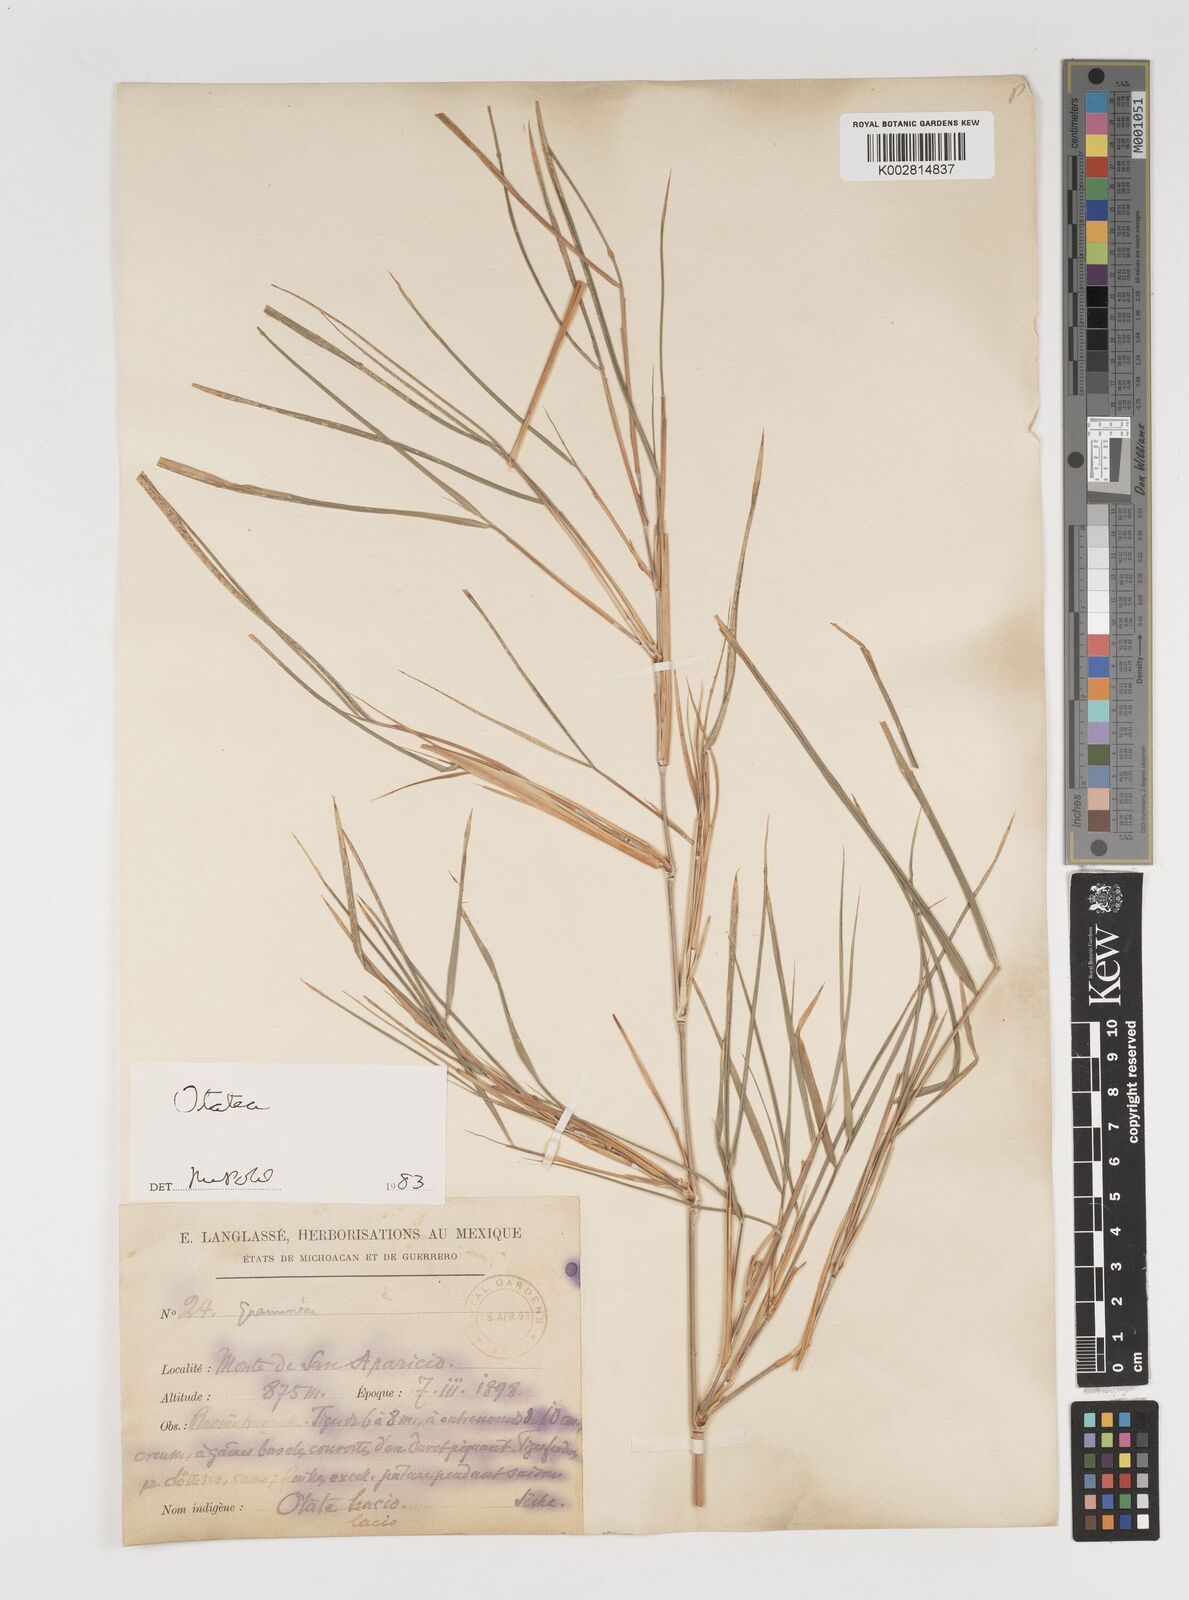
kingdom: Plantae
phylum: Tracheophyta
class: Liliopsida
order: Poales
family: Poaceae
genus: Olmeca
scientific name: Olmeca
